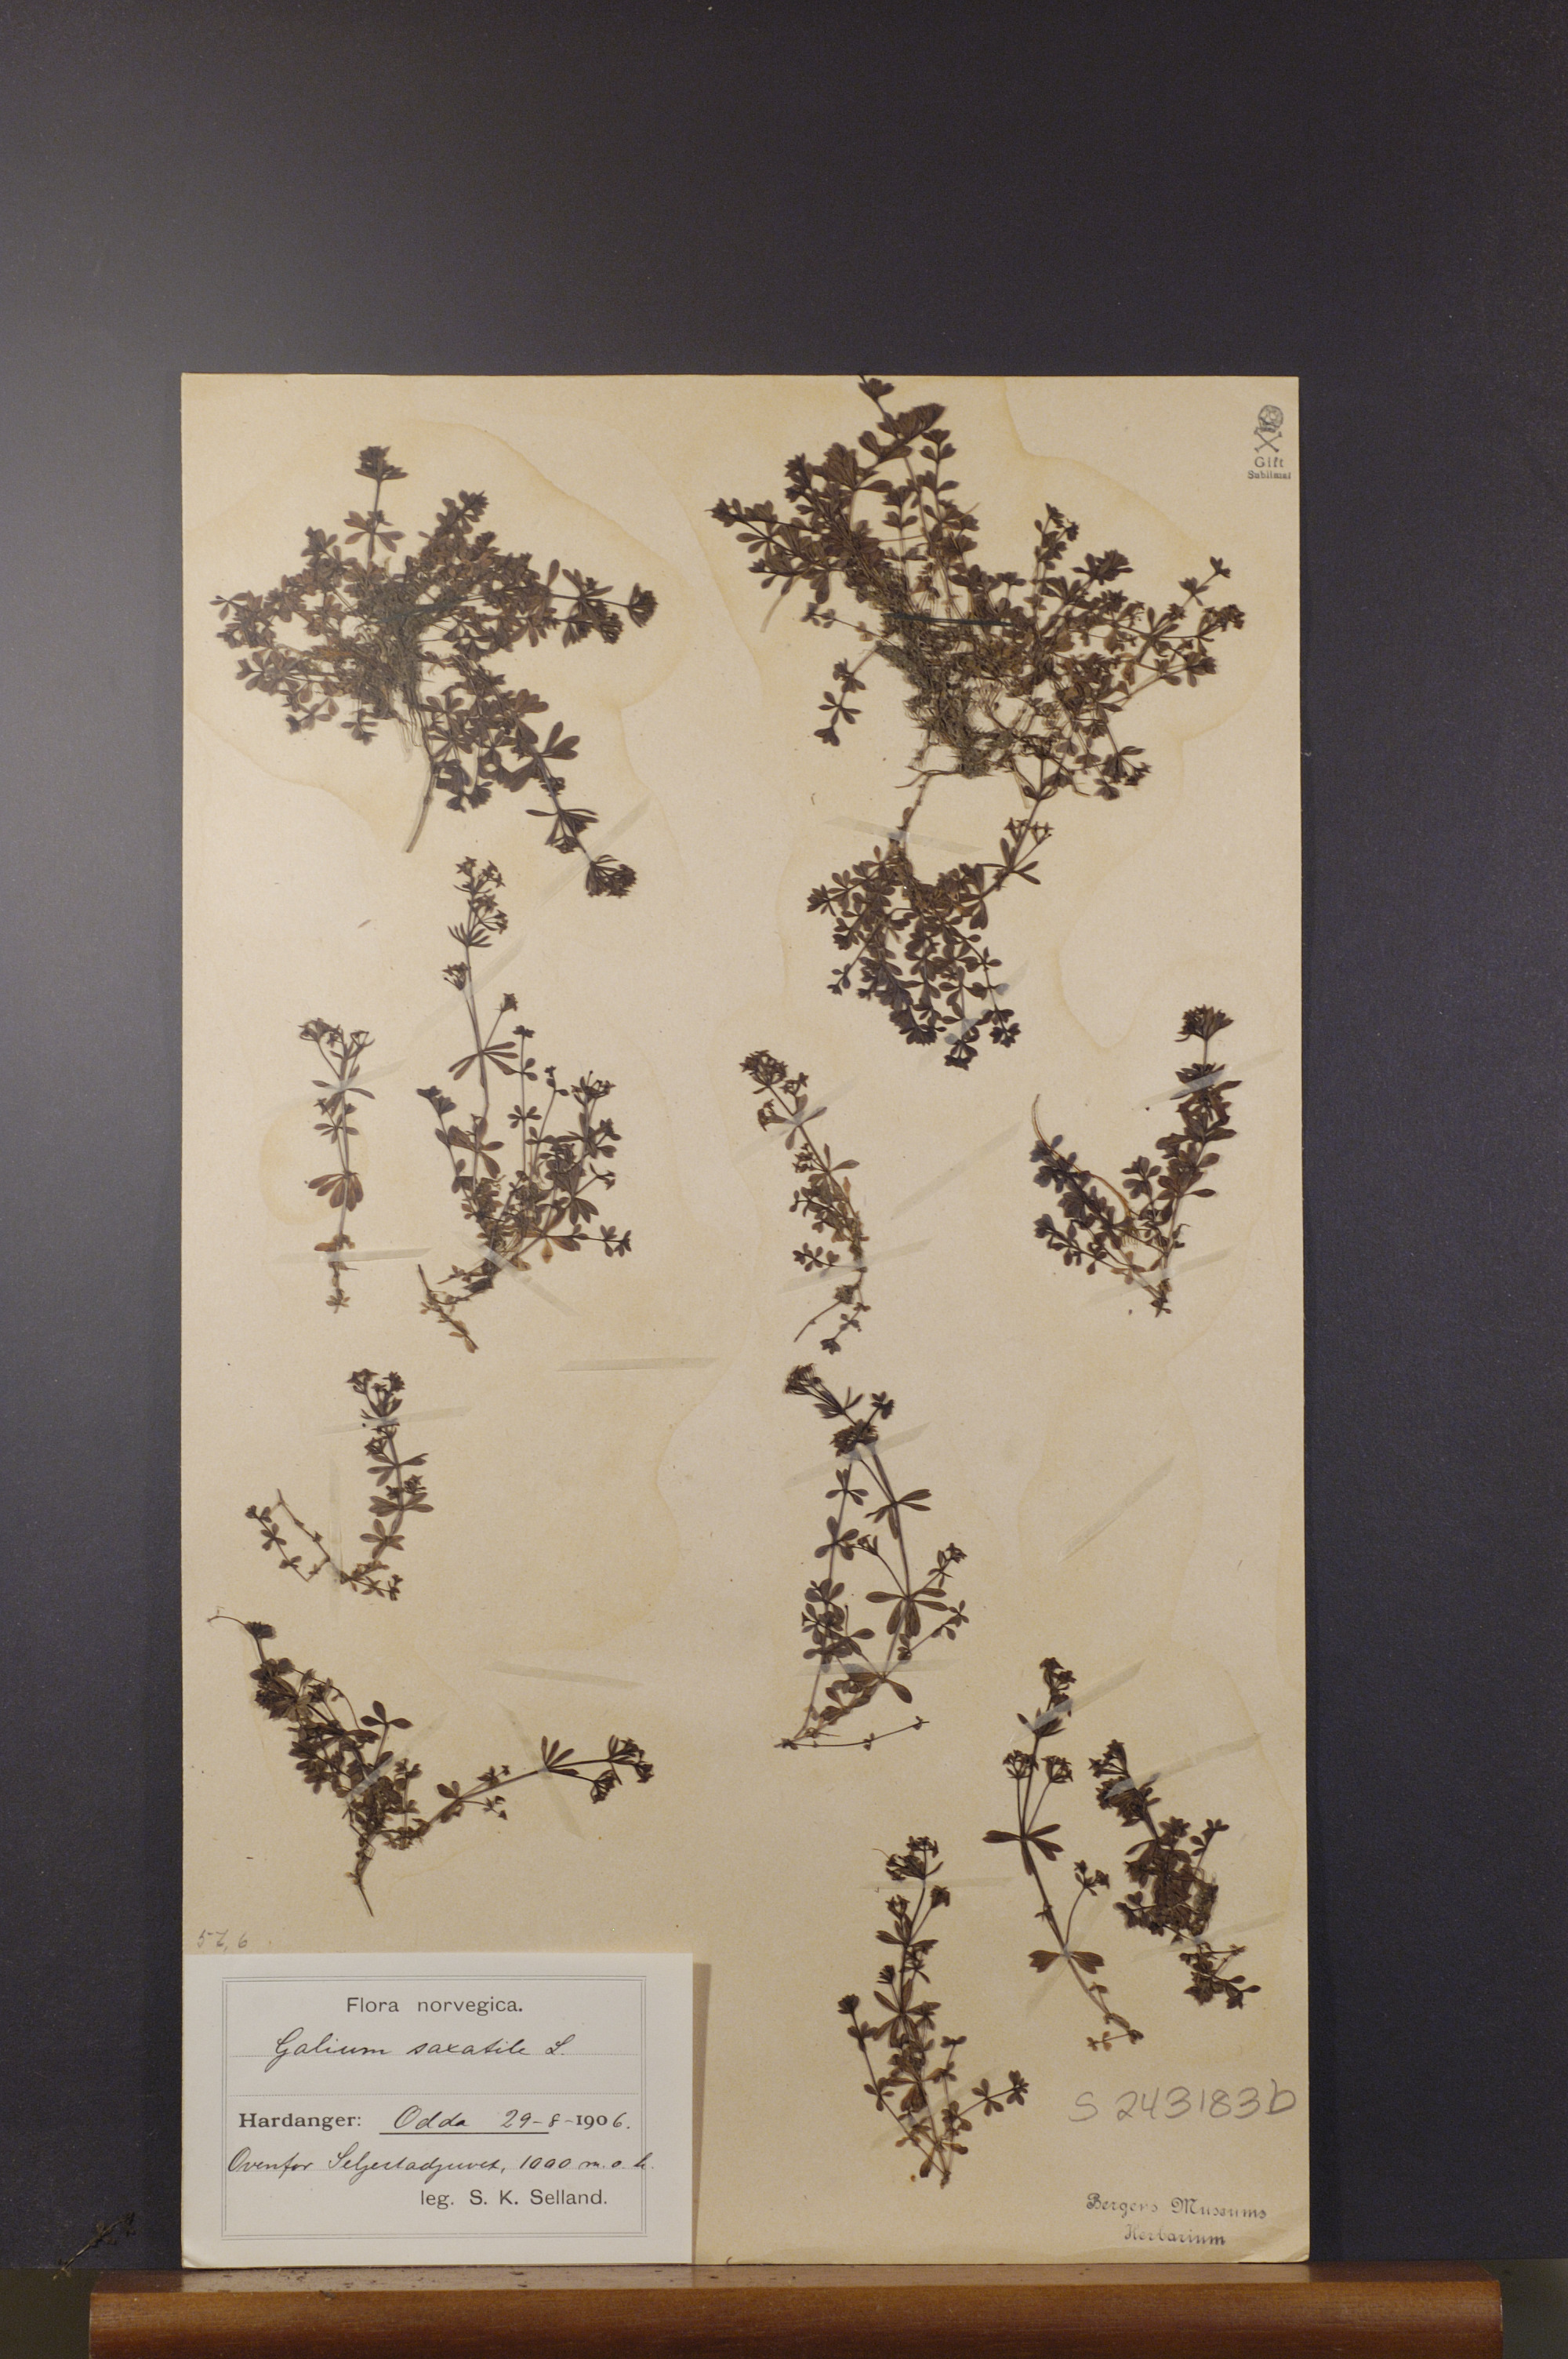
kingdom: Plantae
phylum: Tracheophyta
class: Magnoliopsida
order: Gentianales
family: Rubiaceae
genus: Galium
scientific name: Galium saxatile
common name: Heath bedstraw
